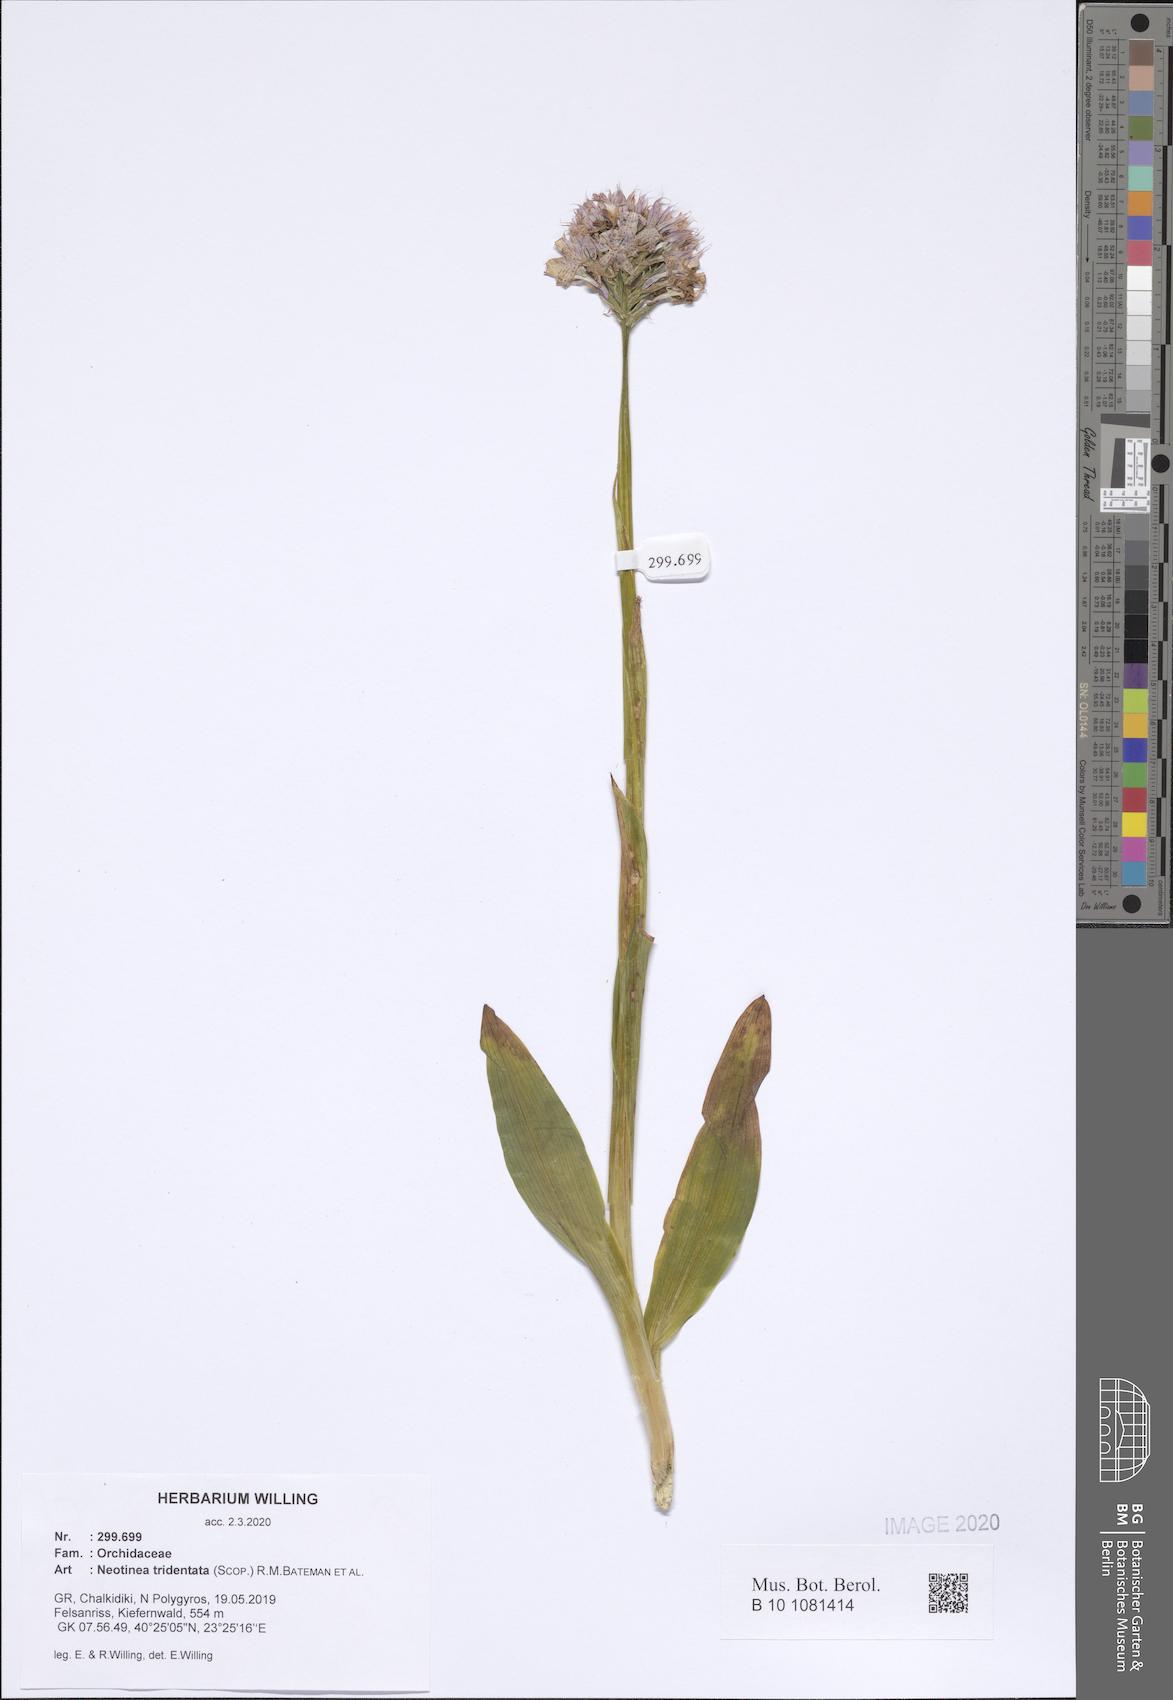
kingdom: Plantae
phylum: Tracheophyta
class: Liliopsida
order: Asparagales
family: Orchidaceae
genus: Neotinea
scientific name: Neotinea tridentata
